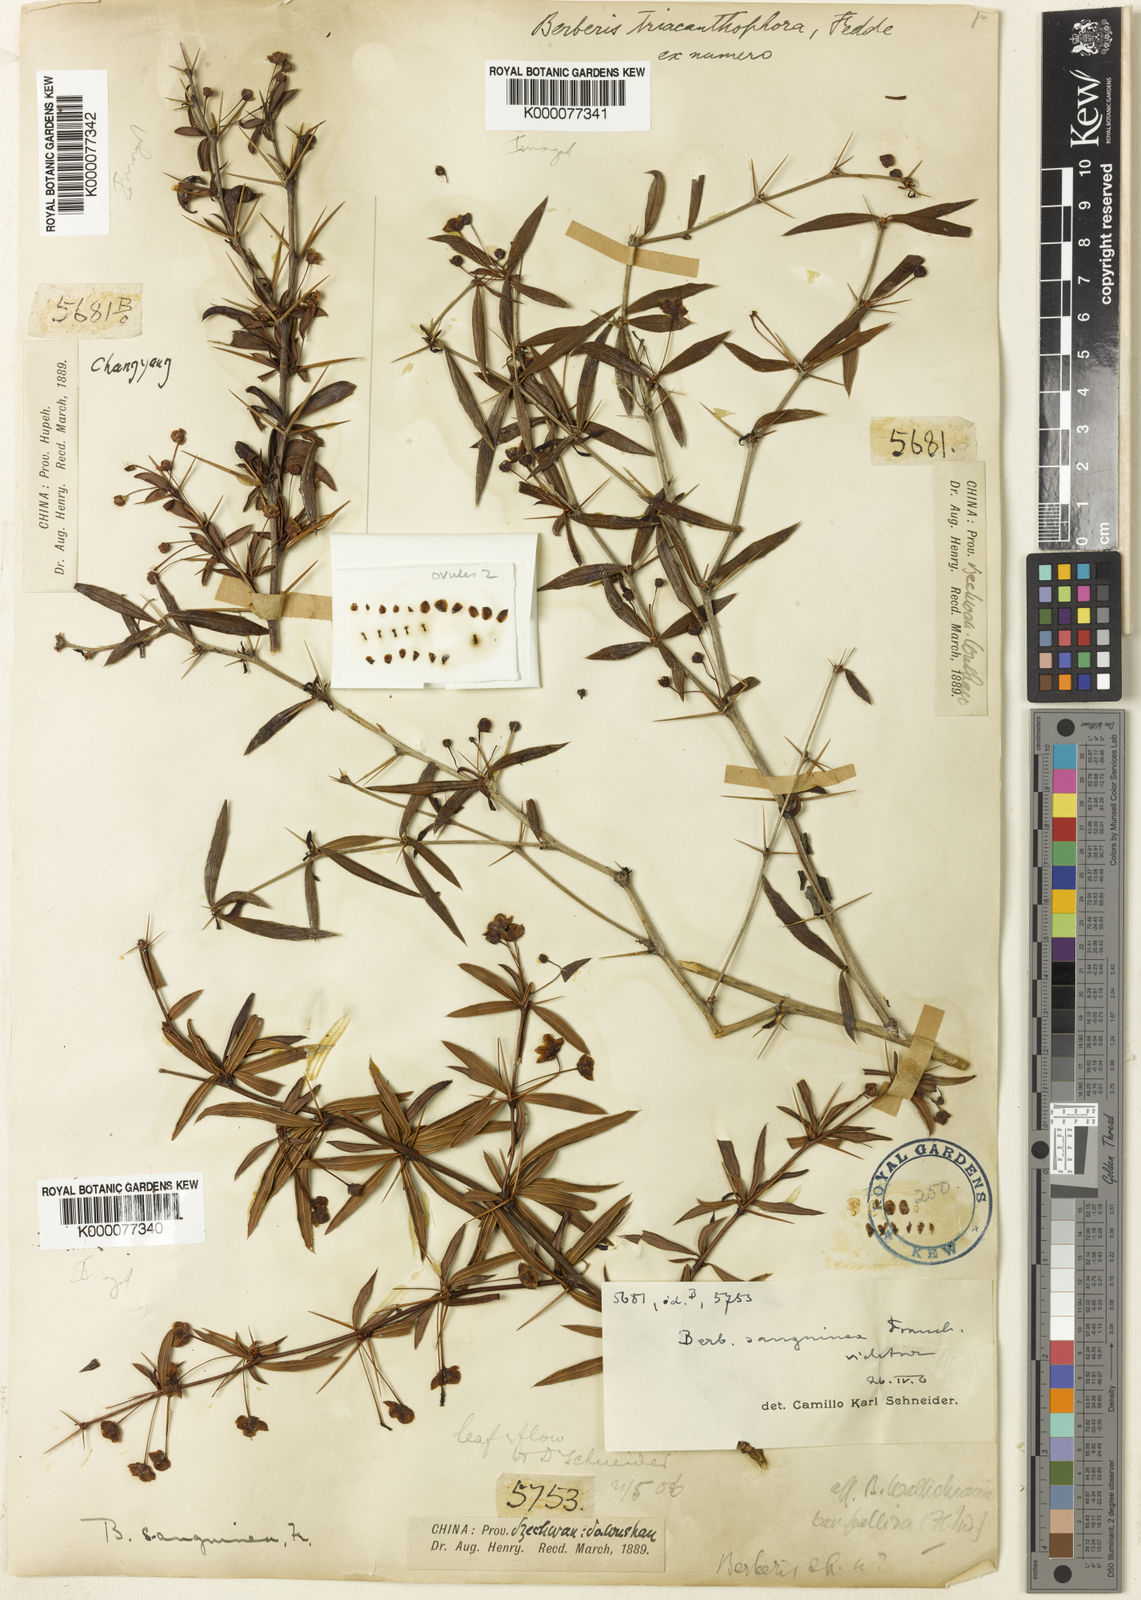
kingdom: Plantae
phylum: Tracheophyta
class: Magnoliopsida
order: Ranunculales
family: Berberidaceae
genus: Berberis
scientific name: Berberis triacanthophora
